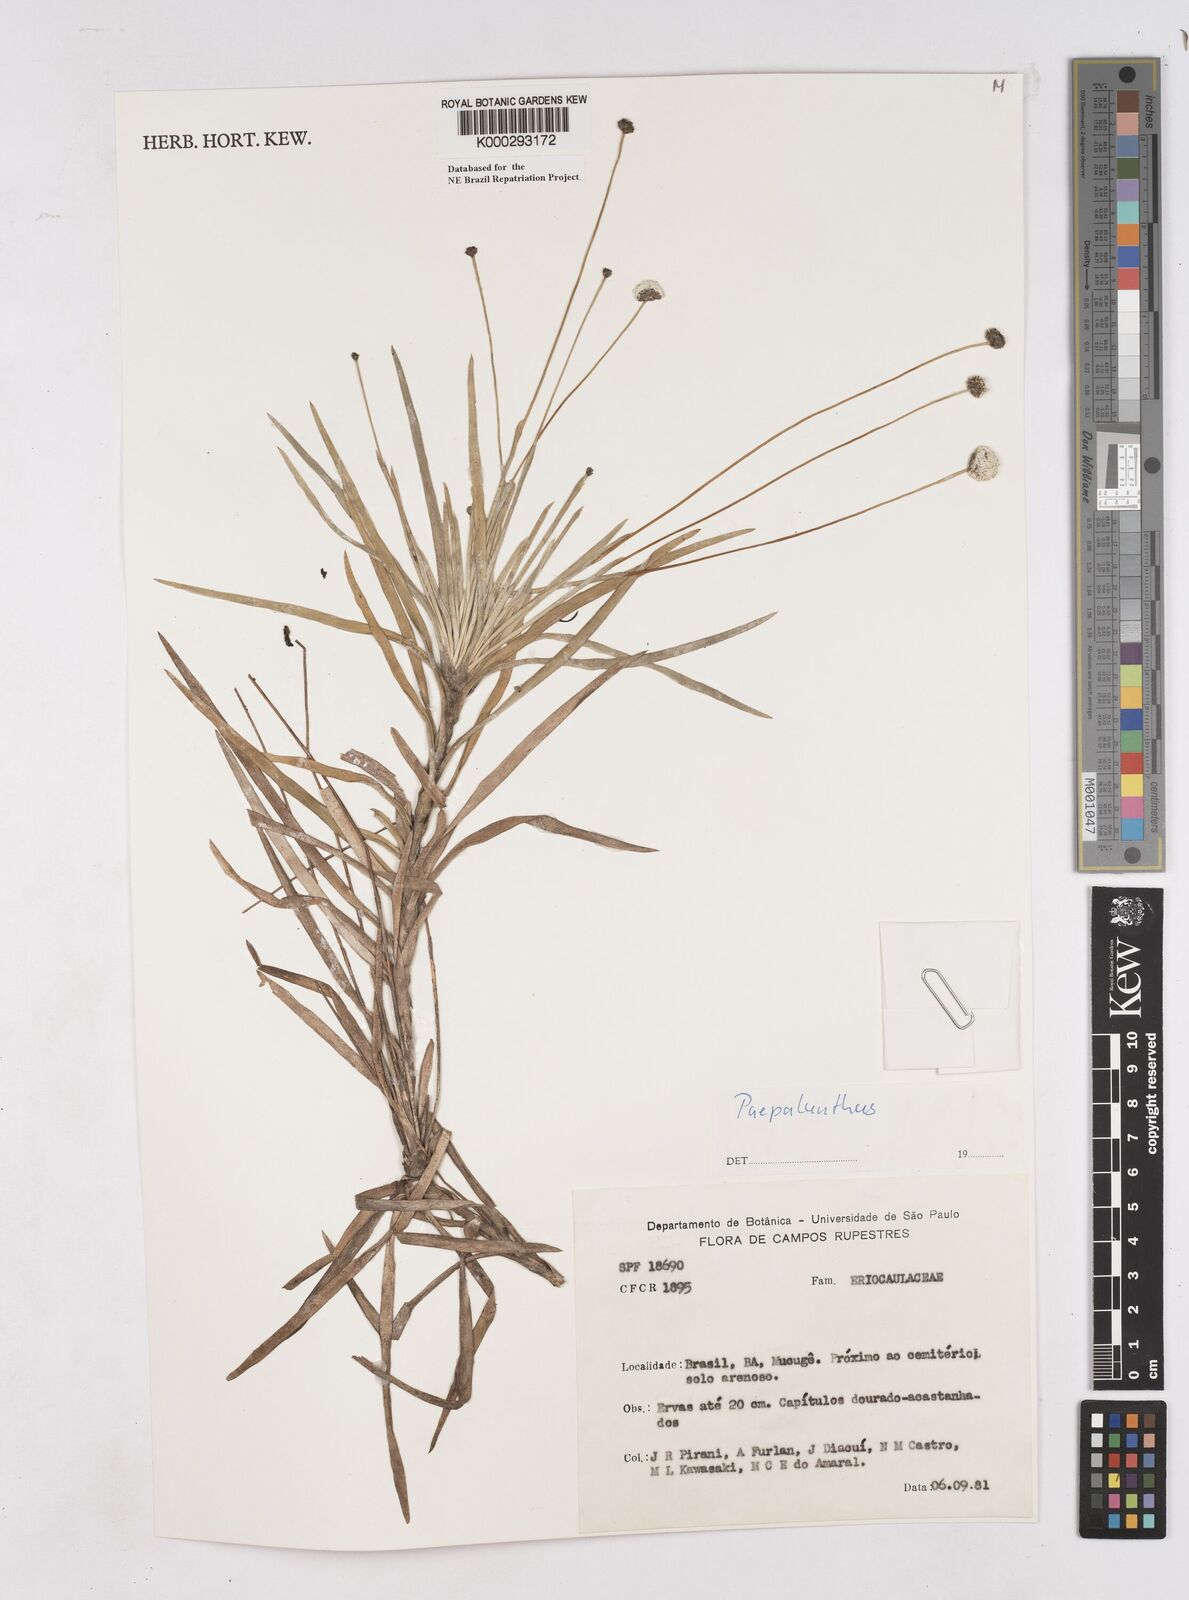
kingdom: Plantae
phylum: Tracheophyta
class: Liliopsida
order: Poales
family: Eriocaulaceae
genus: Paepalanthus
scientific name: Paepalanthus
